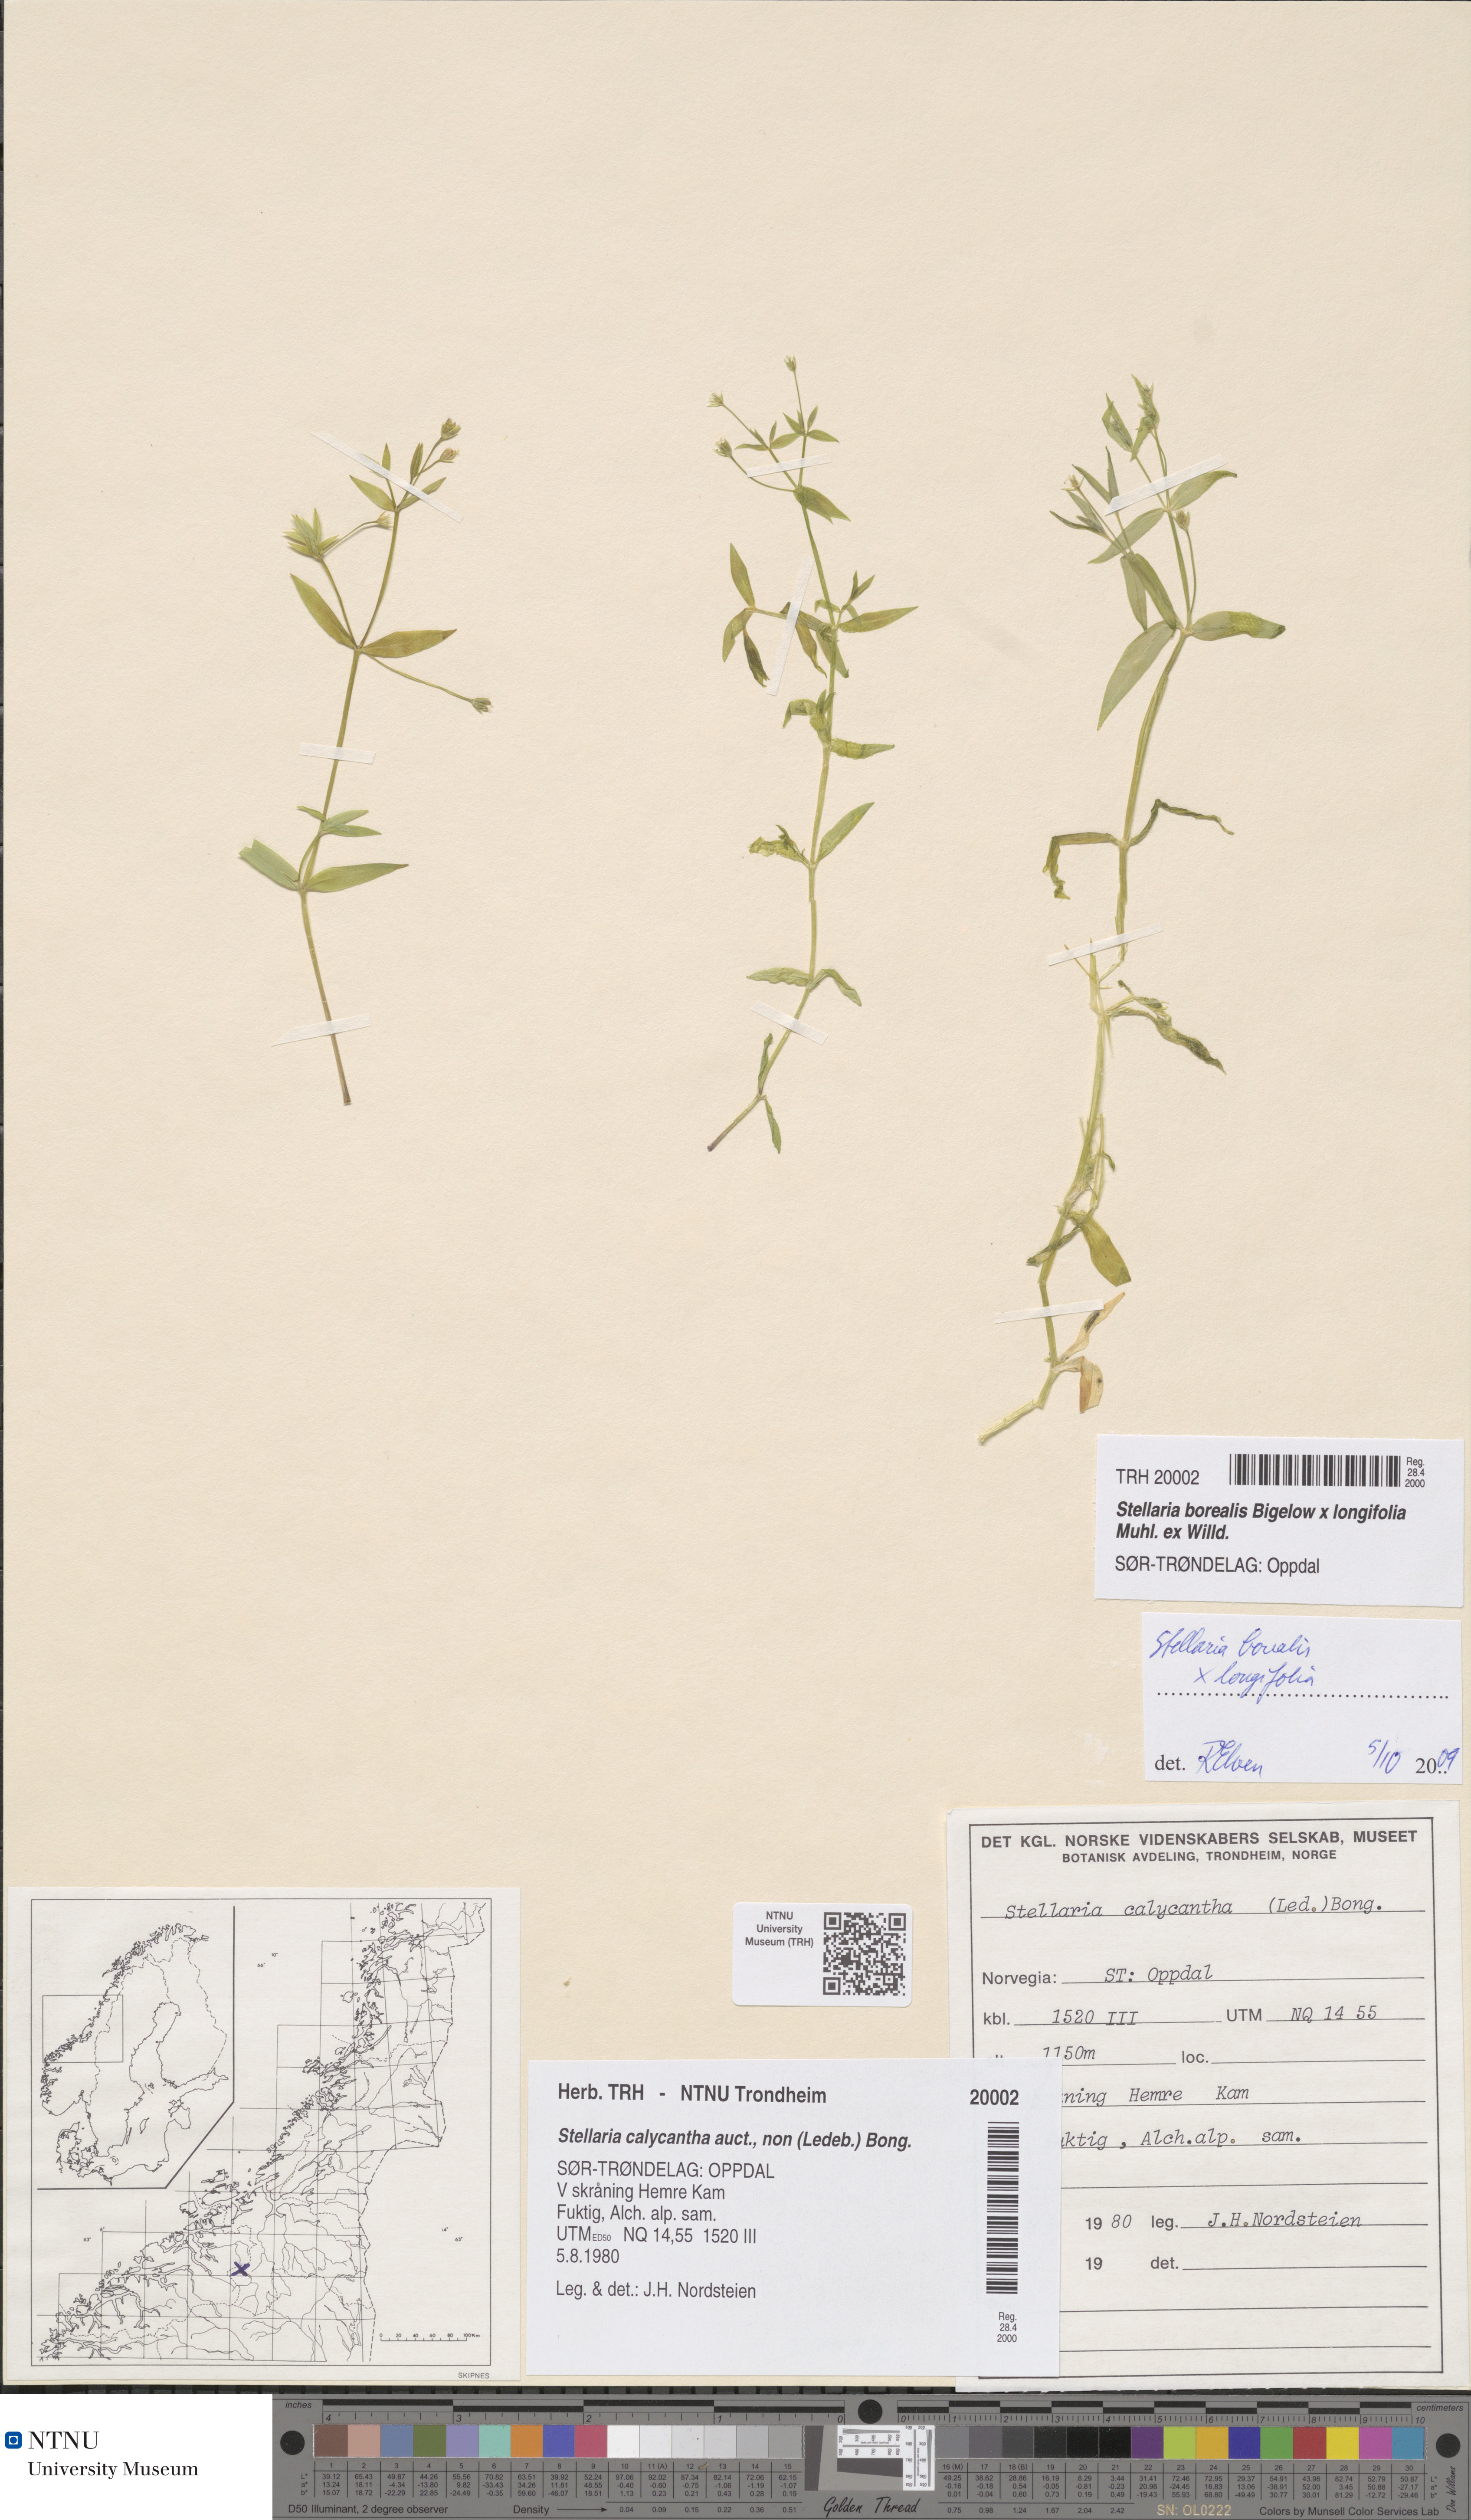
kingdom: Plantae
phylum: Tracheophyta
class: Magnoliopsida
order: Caryophyllales
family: Caryophyllaceae
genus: Stellaria
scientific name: Stellaria alpestris
